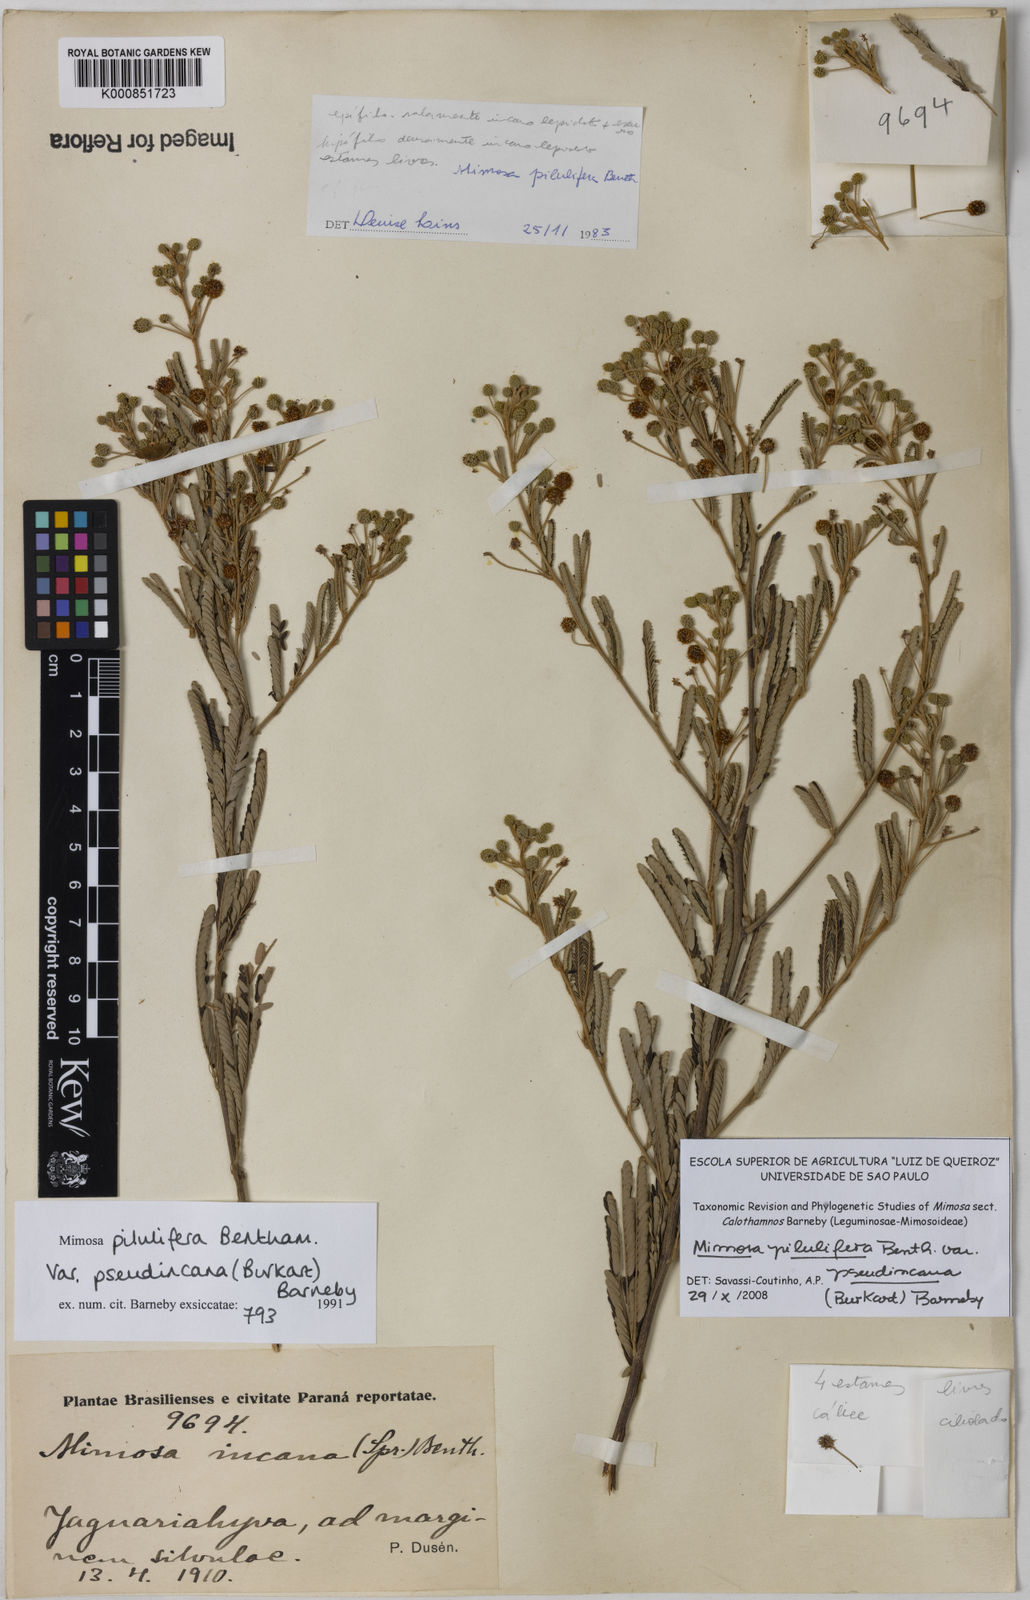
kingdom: Plantae
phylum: Tracheophyta
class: Magnoliopsida
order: Fabales
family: Fabaceae
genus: Mimosa
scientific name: Mimosa pilulifera
